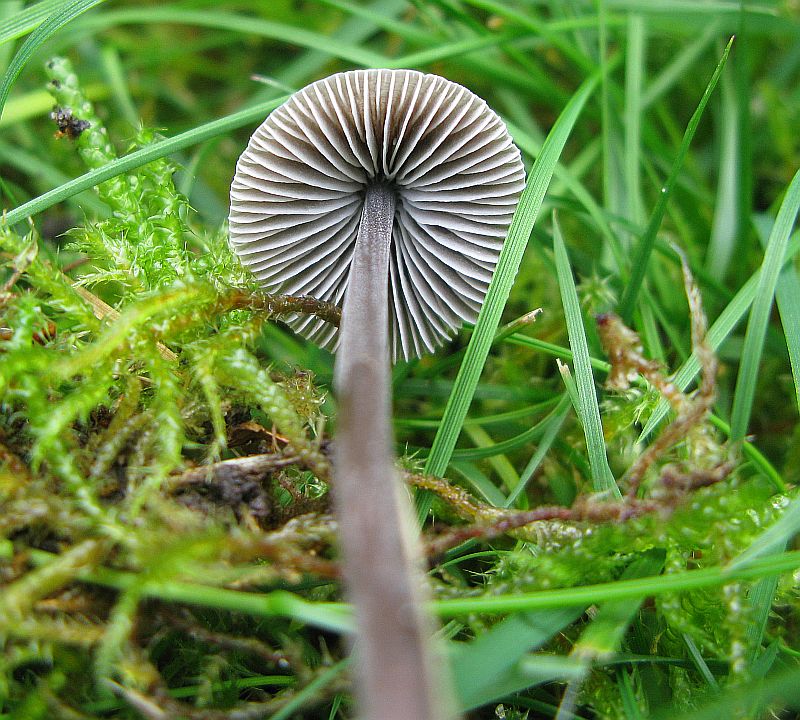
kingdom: Fungi
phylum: Basidiomycota
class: Agaricomycetes
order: Agaricales
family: Mycenaceae
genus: Mycena
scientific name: Mycena leptocephala
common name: klor-huesvamp
